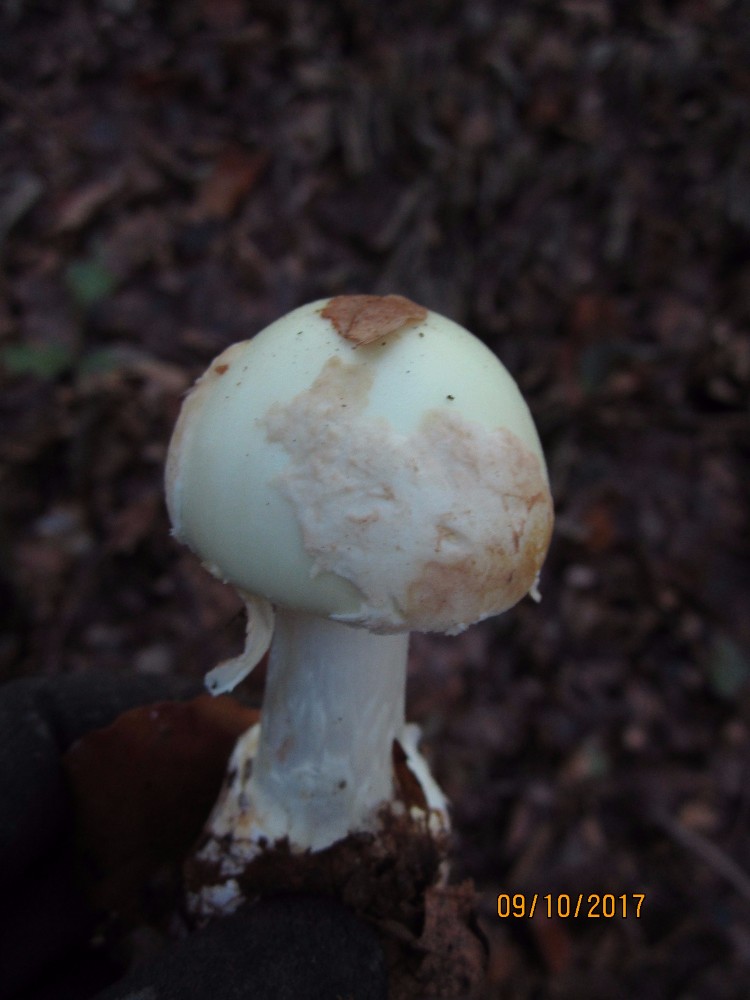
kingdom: Fungi
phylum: Basidiomycota
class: Agaricomycetes
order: Agaricales
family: Amanitaceae
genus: Amanita
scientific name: Amanita rubescens
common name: rødmende fluesvamp
